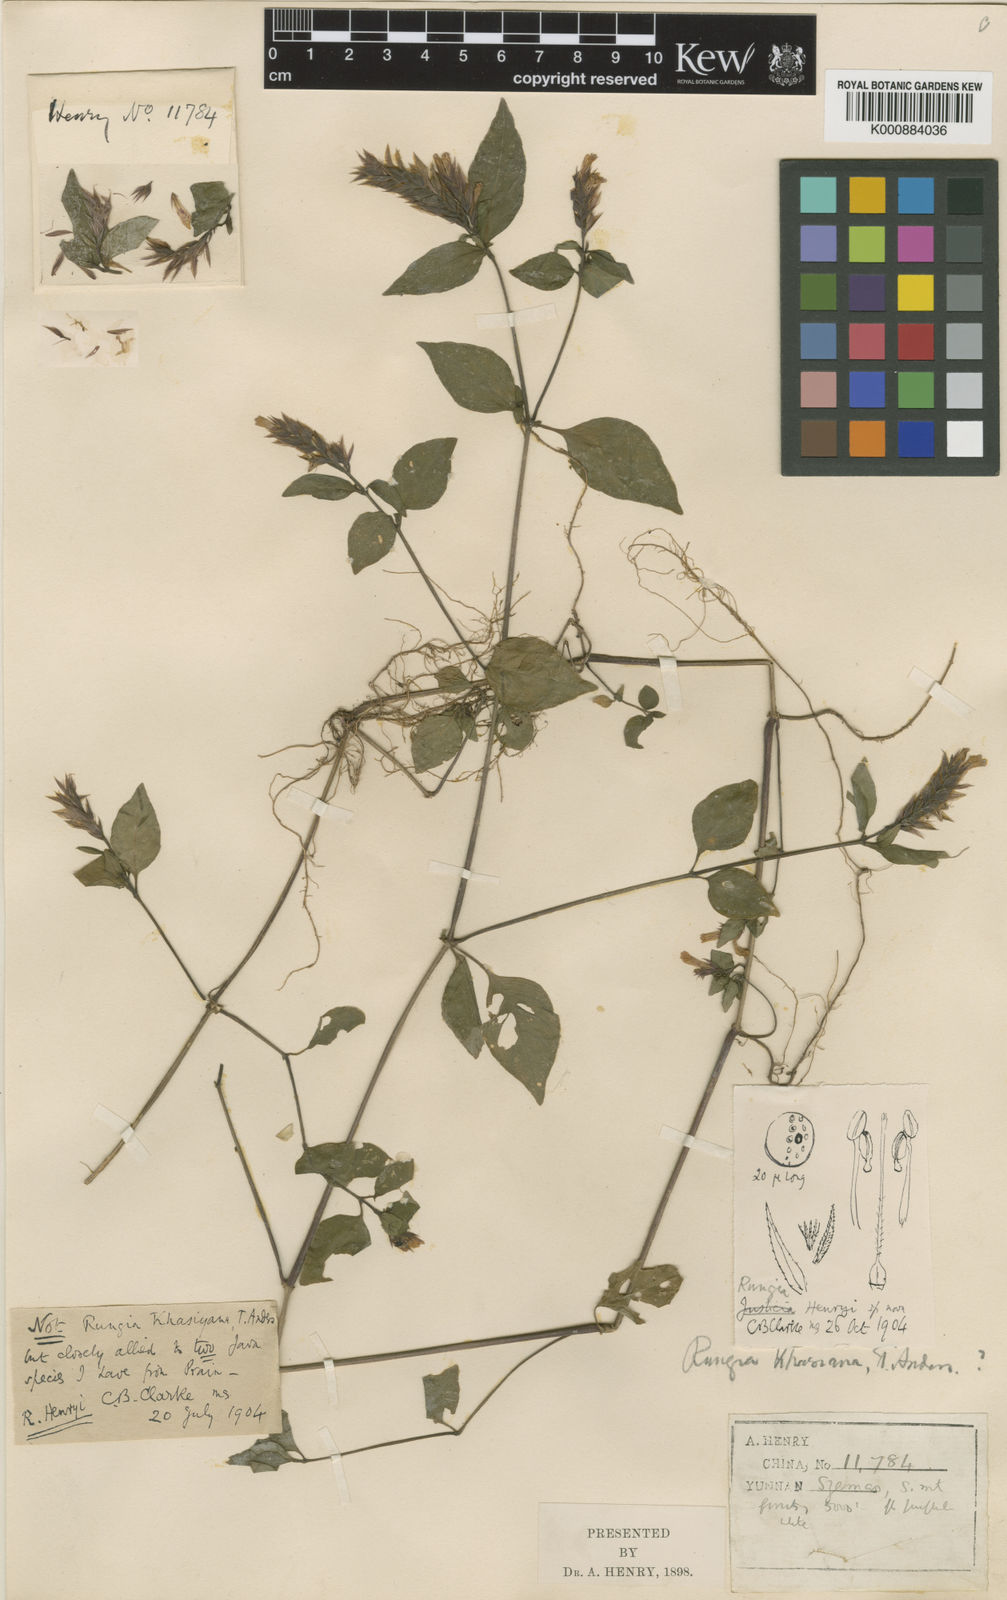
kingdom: Plantae
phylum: Tracheophyta
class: Magnoliopsida
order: Lamiales
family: Acanthaceae
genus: Justicia
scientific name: Justicia
